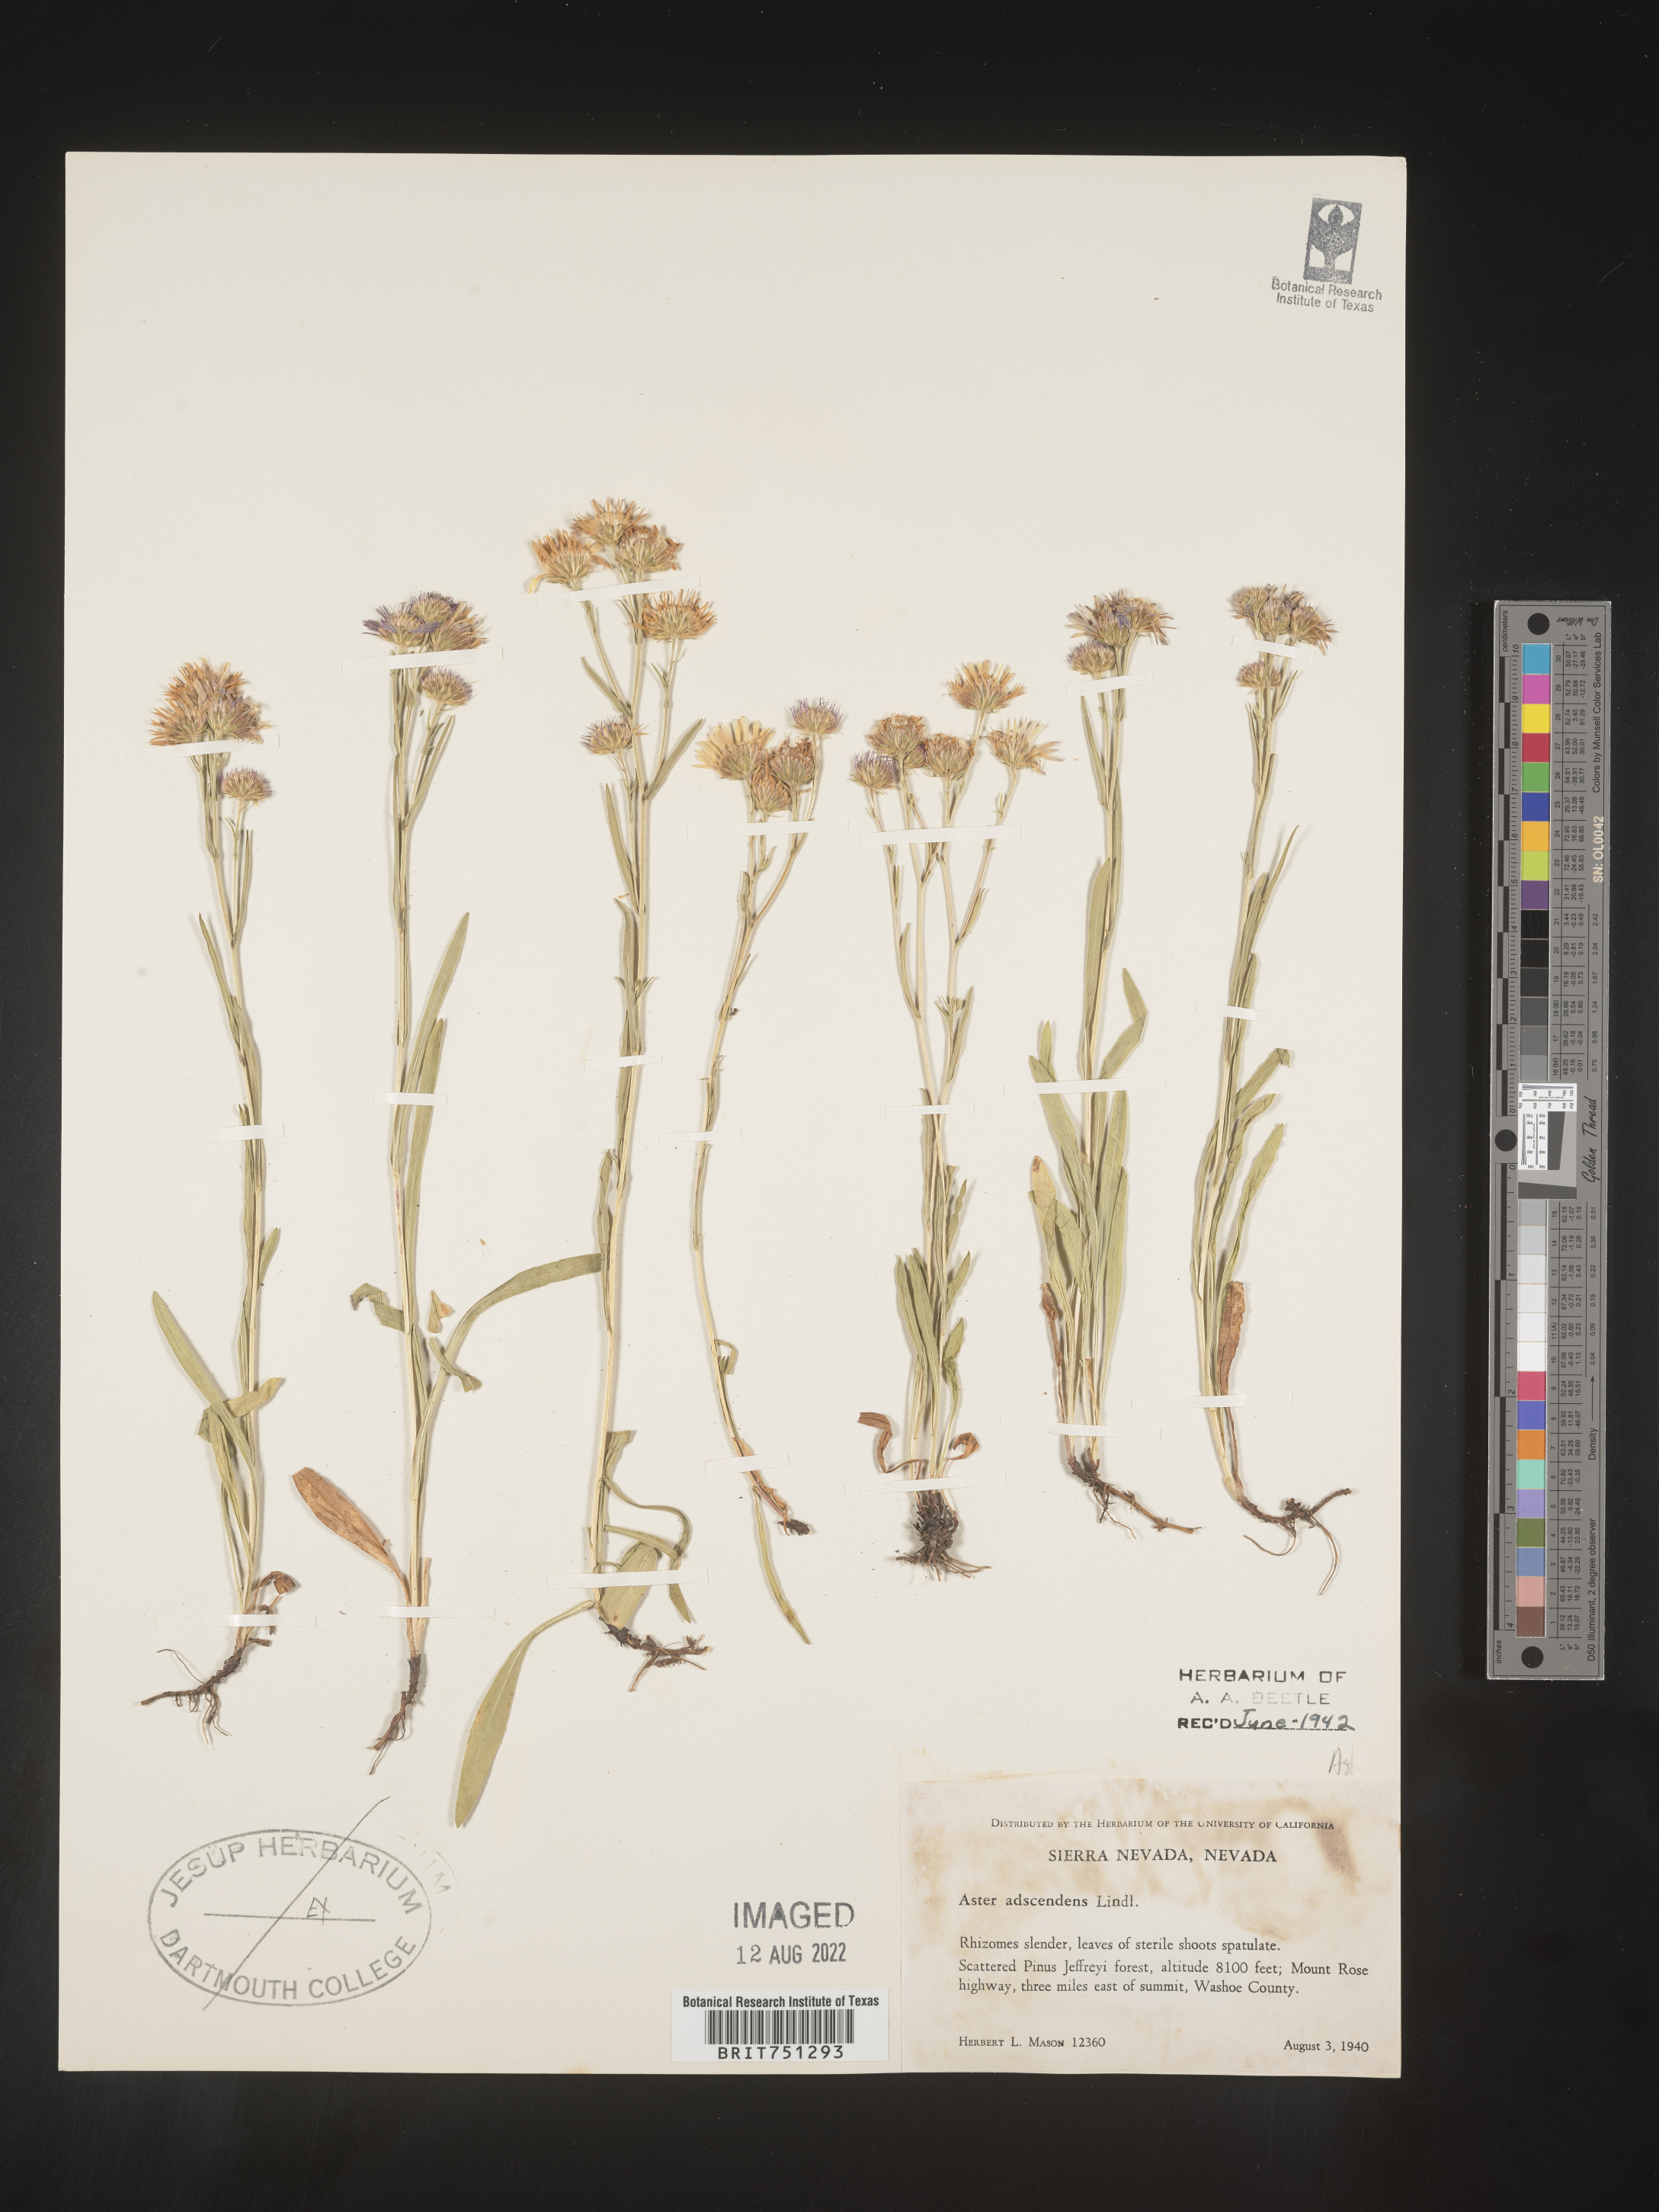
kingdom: Plantae
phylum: Tracheophyta
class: Magnoliopsida
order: Asterales
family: Asteraceae
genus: Symphyotrichum
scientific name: Symphyotrichum ascendens
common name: Intermountain aster
